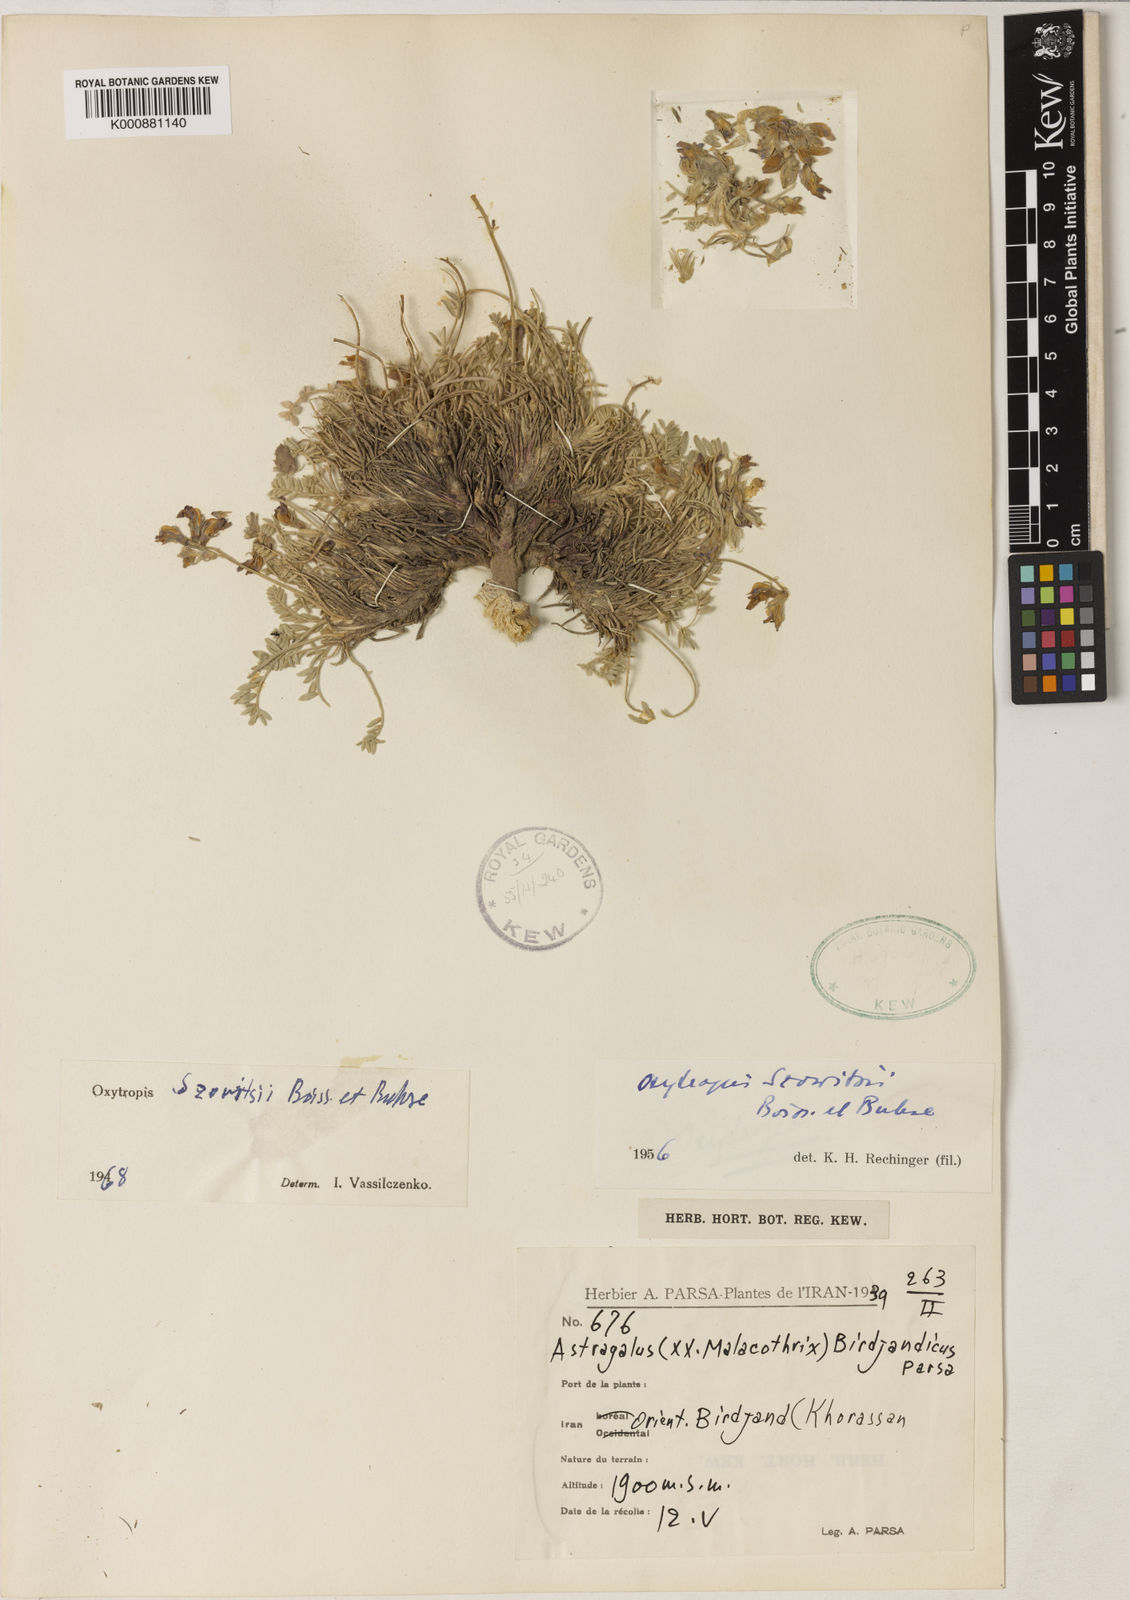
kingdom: Plantae
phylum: Tracheophyta
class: Magnoliopsida
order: Fabales
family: Fabaceae
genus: Oxytropis
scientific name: Oxytropis szovitsii
